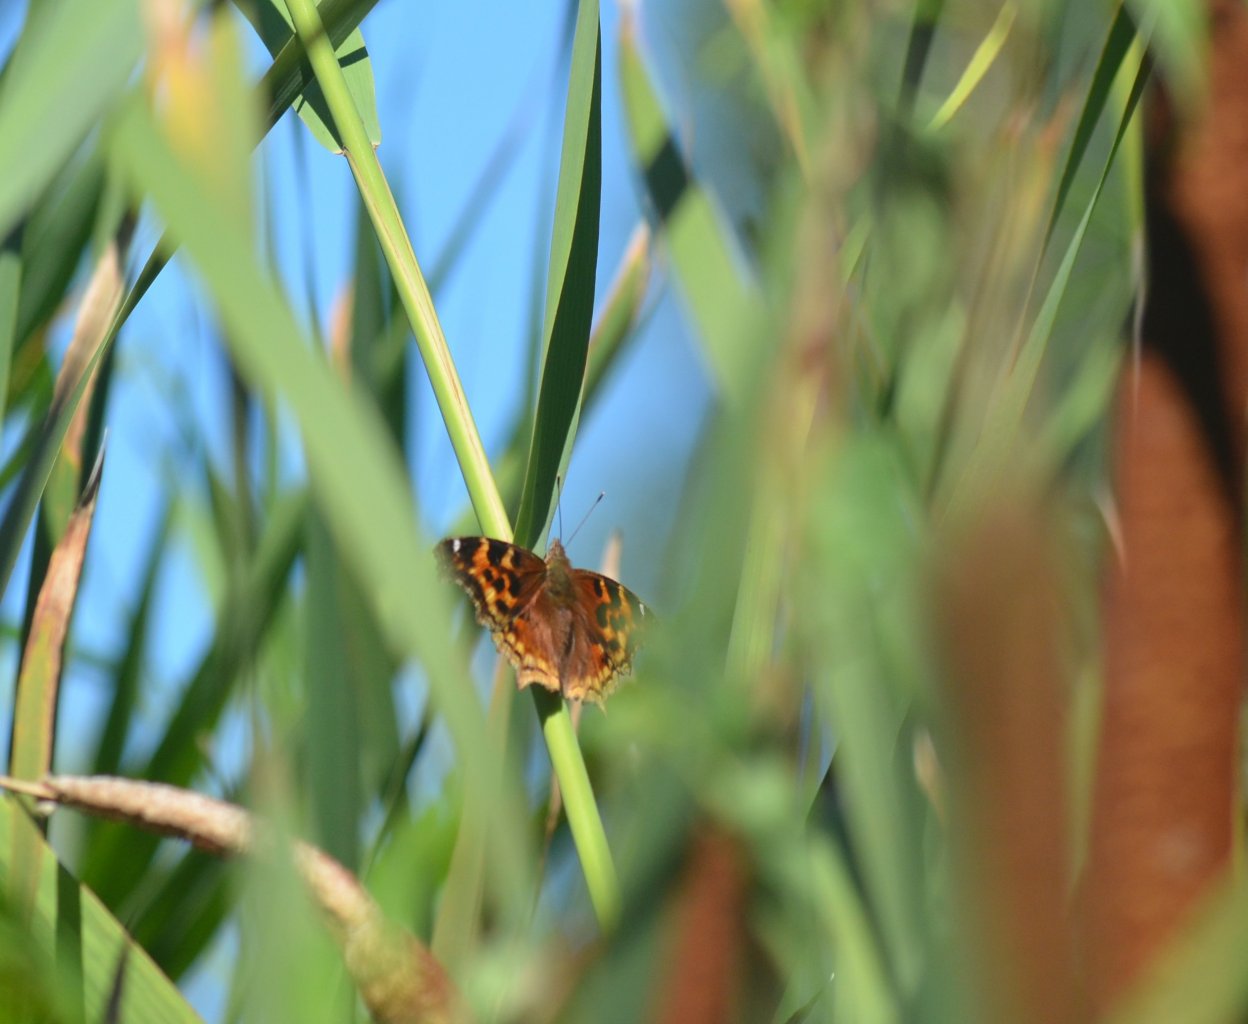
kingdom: Animalia
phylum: Arthropoda
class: Insecta
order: Lepidoptera
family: Nymphalidae
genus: Polygonia
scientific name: Polygonia vaualbum
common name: Compton Tortoiseshell
